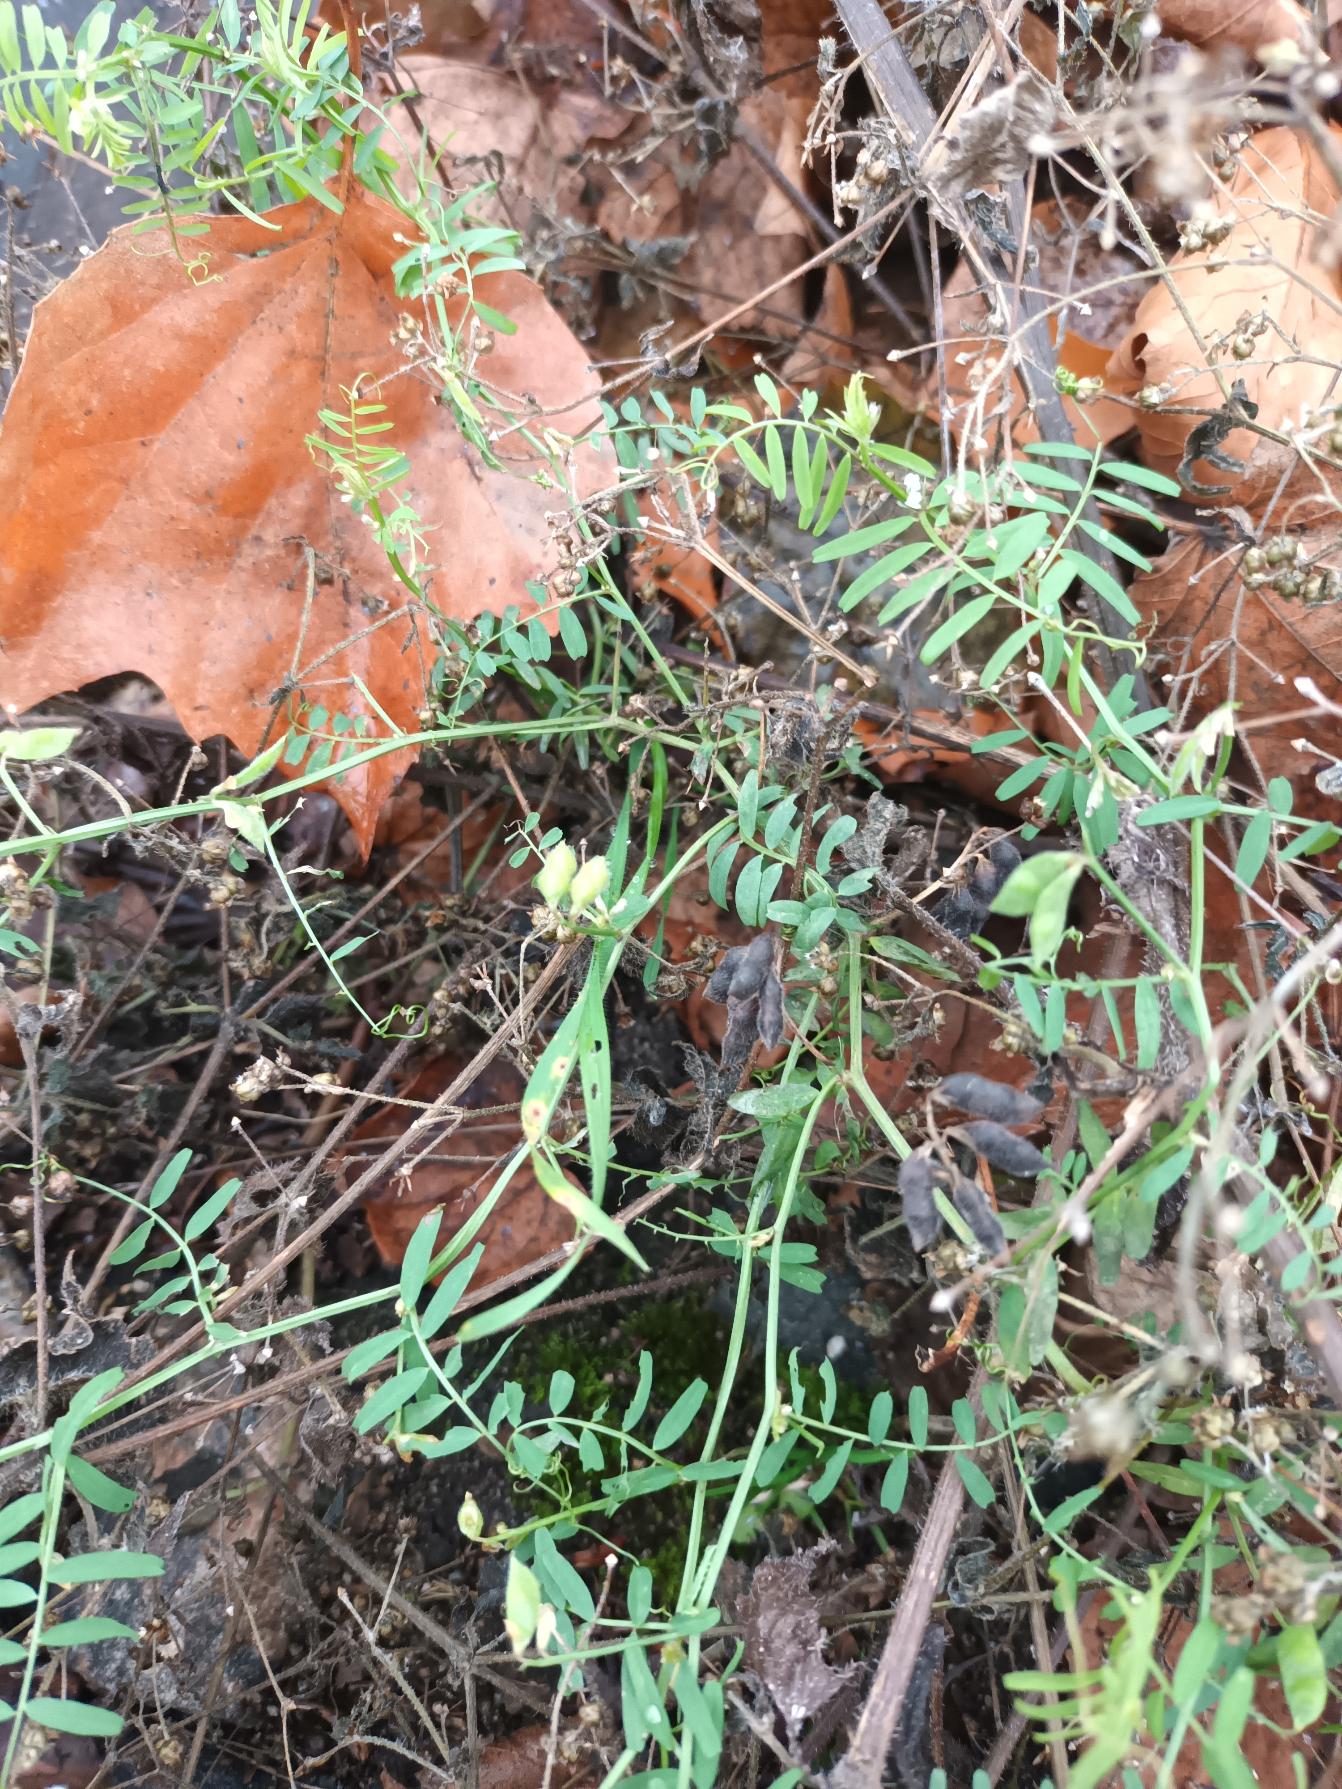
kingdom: Plantae
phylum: Tracheophyta
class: Magnoliopsida
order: Fabales
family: Fabaceae
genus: Vicia
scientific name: Vicia hirsuta
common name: Tofrøet vikke
